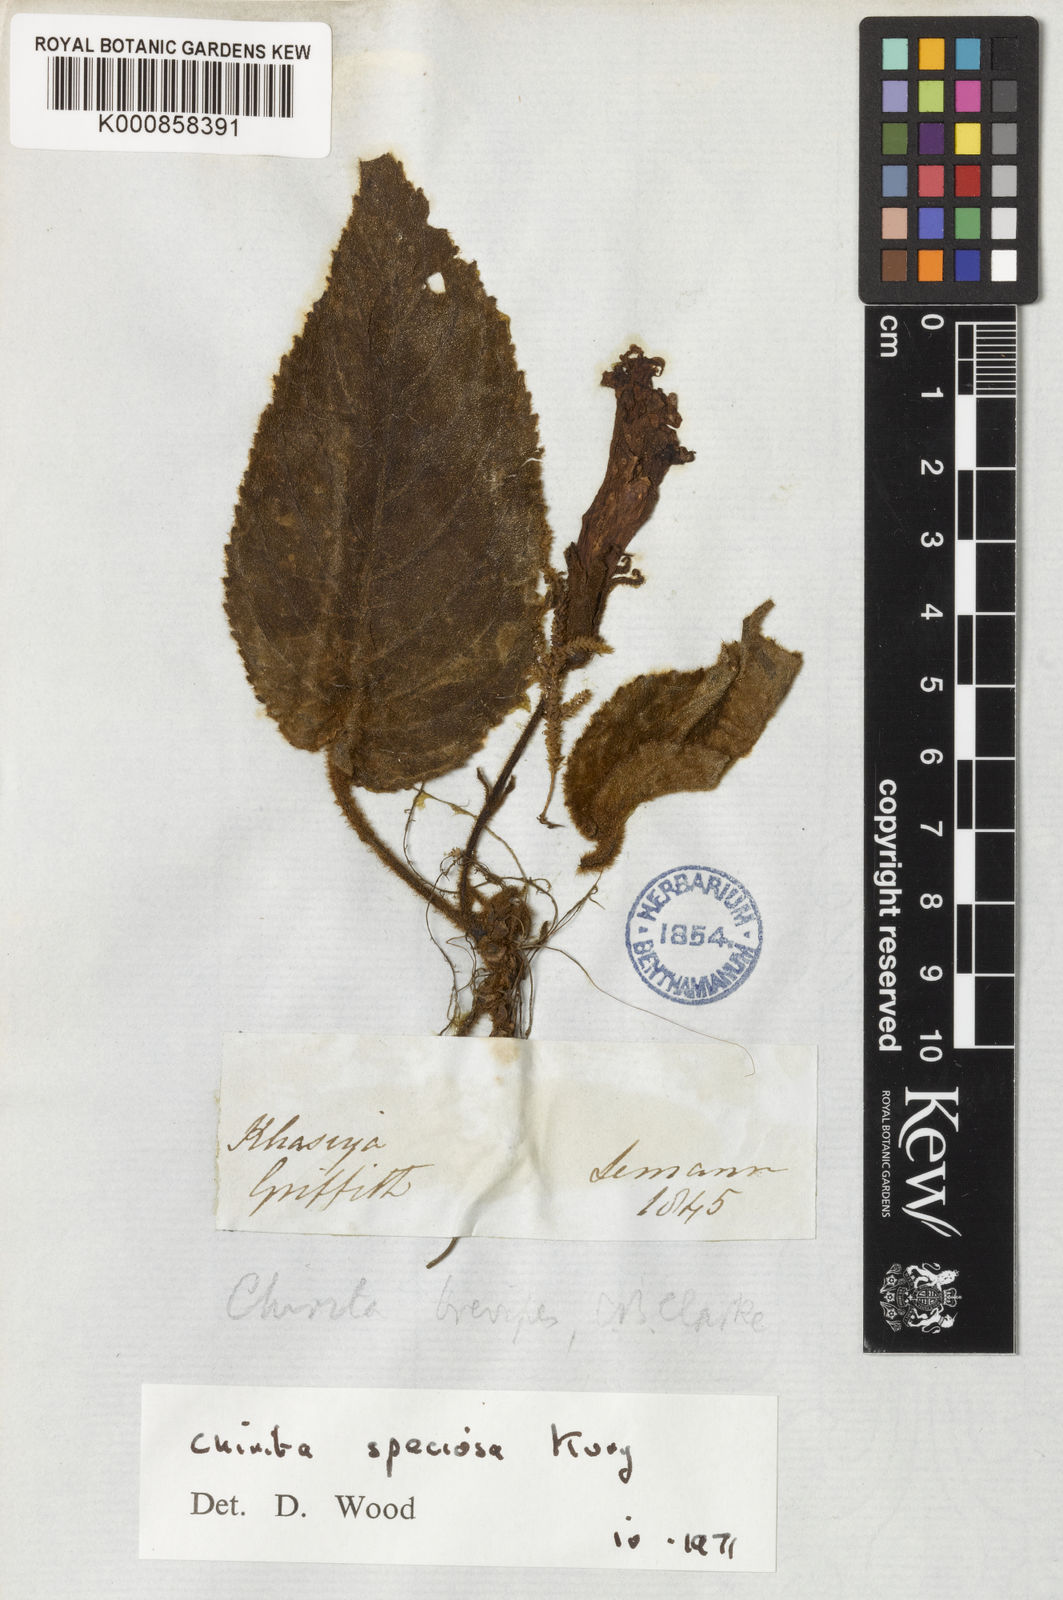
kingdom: Plantae
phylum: Tracheophyta
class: Magnoliopsida
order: Lamiales
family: Gesneriaceae
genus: Henckelia
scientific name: Henckelia speciosa
